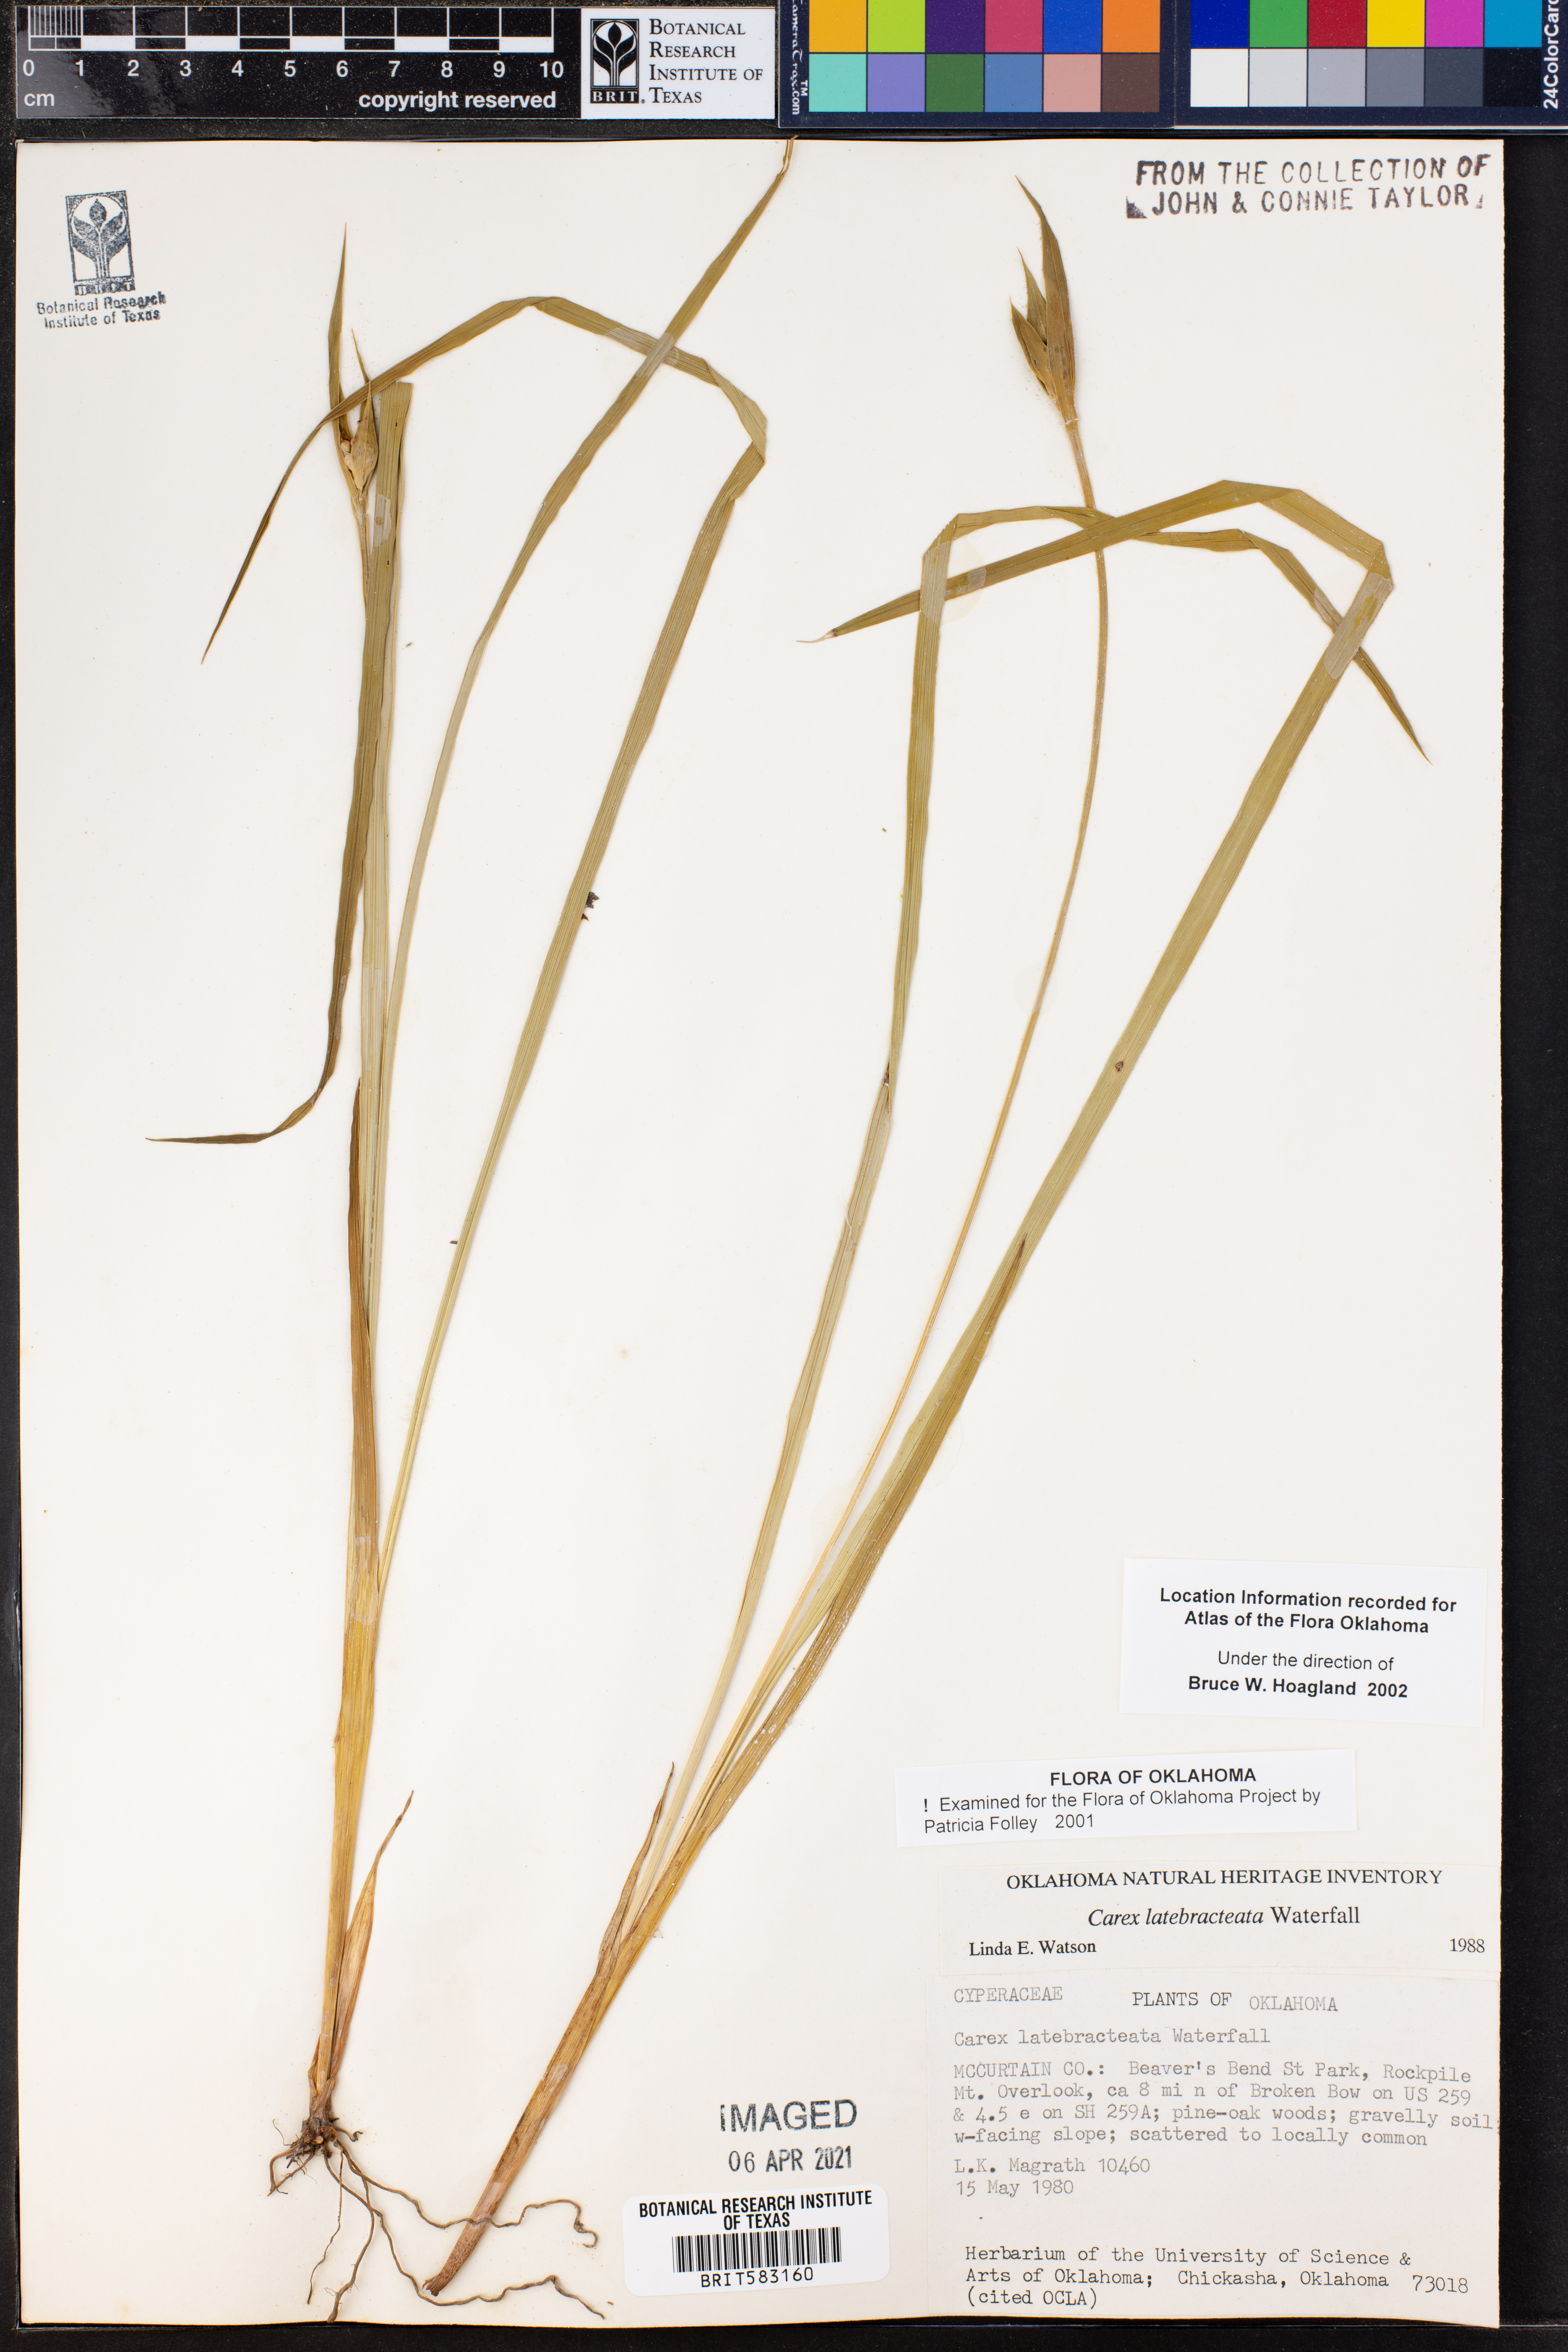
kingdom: Plantae
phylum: Tracheophyta
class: Liliopsida
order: Poales
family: Cyperaceae
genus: Carex
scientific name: Carex latebracteata
